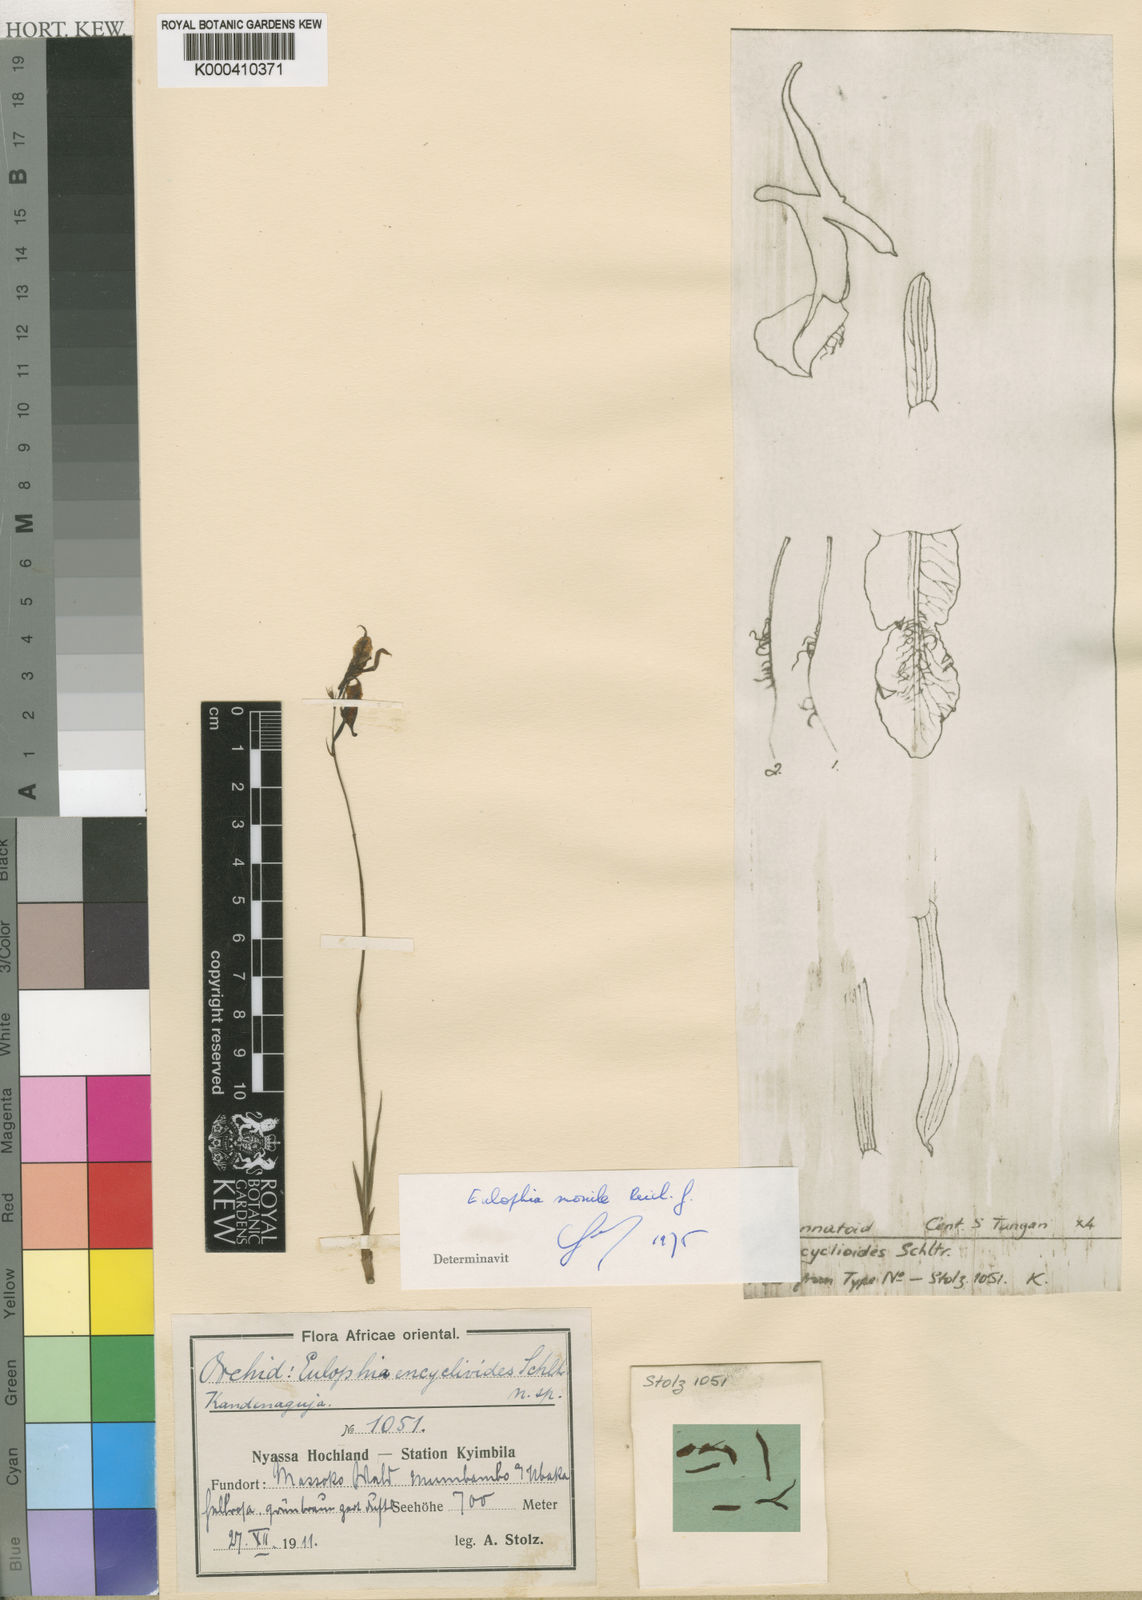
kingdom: Plantae
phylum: Tracheophyta
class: Liliopsida
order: Asparagales
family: Orchidaceae
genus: Eulophia
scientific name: Eulophia venulosa
